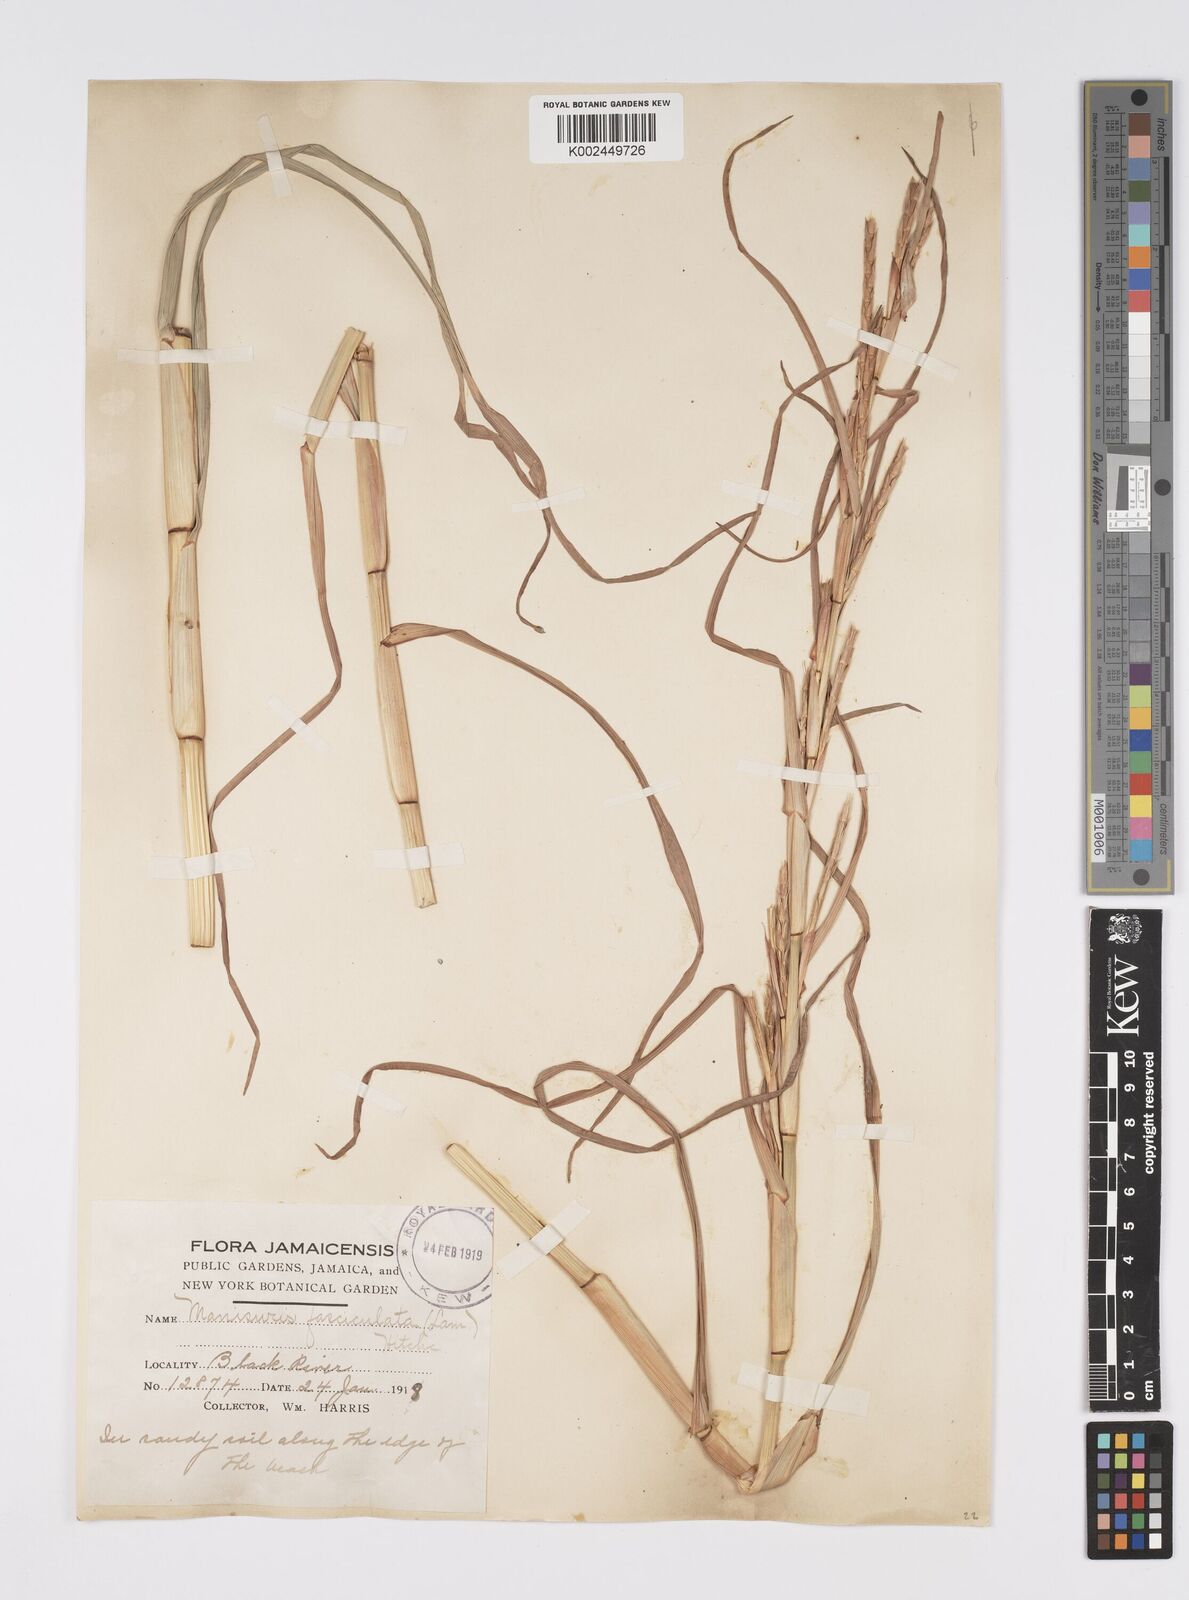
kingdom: Plantae
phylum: Tracheophyta
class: Liliopsida
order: Poales
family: Poaceae
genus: Hemarthria
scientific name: Hemarthria altissima
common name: African jointgrass
